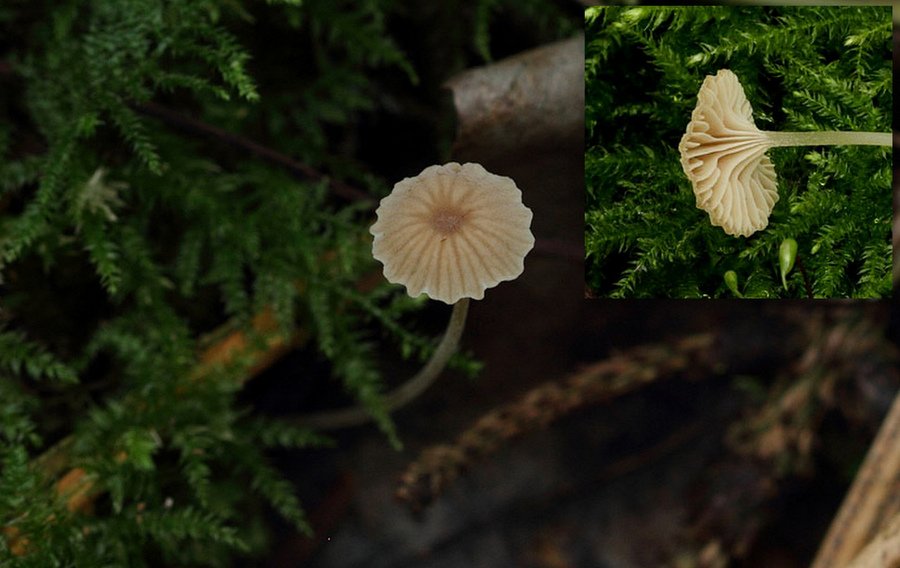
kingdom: Fungi
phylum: Basidiomycota
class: Agaricomycetes
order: Agaricales
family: Porotheleaceae
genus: Phloeomana
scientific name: Phloeomana clavata
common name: brunbladet huesvamp
